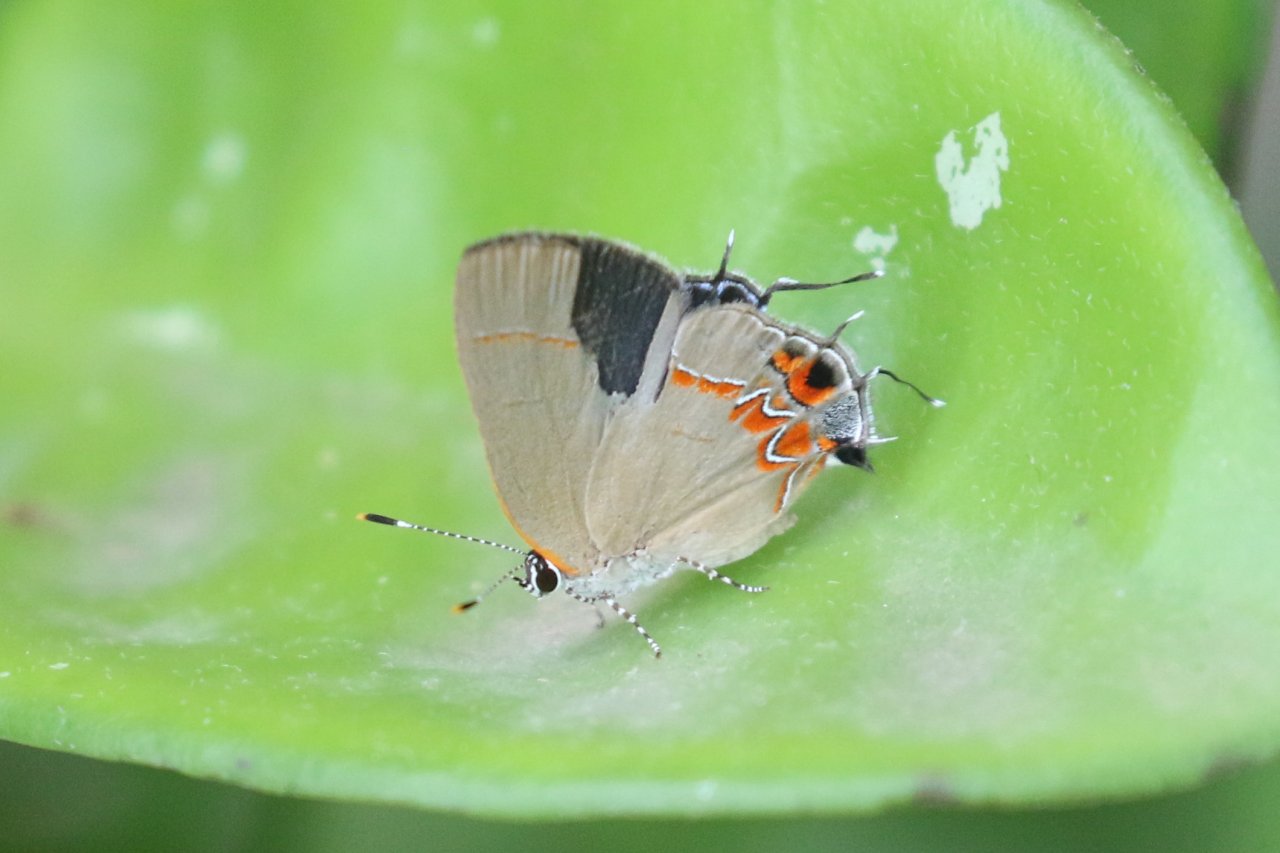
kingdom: Animalia
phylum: Arthropoda
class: Insecta
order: Lepidoptera
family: Lycaenidae
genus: Calycopis
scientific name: Calycopis isobeon
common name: Dusky-blue Groundstreak
